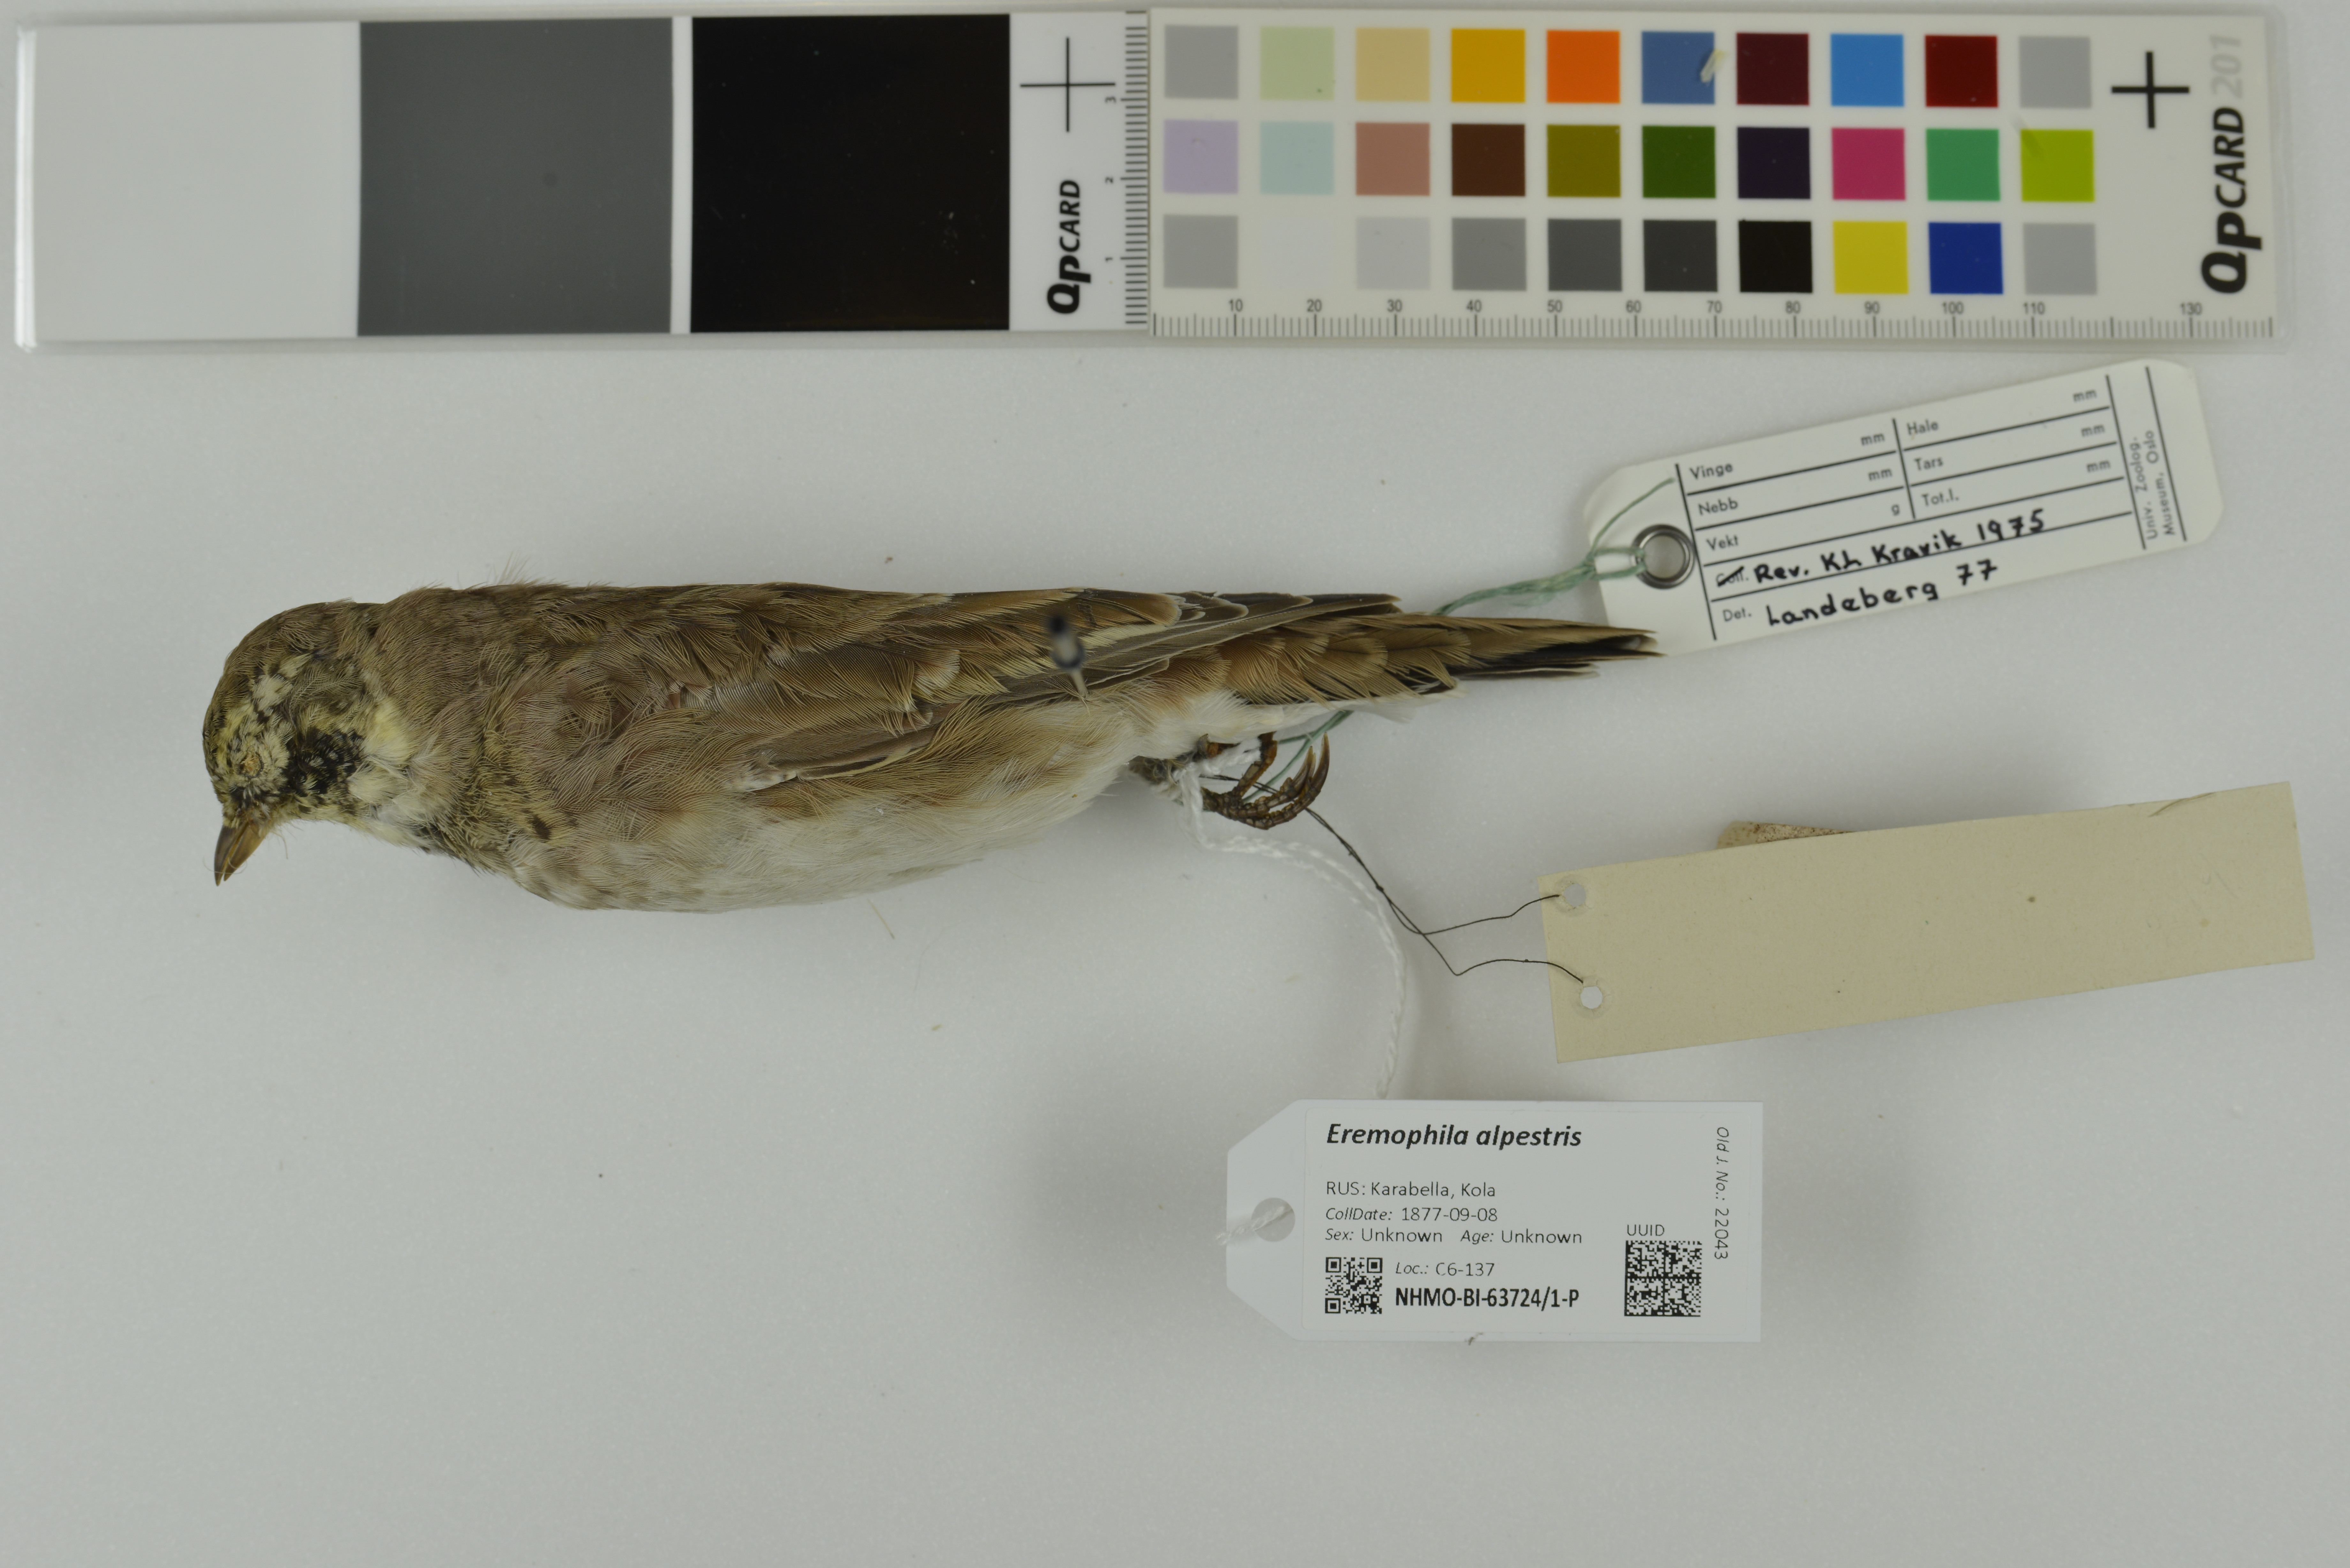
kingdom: Animalia
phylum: Chordata
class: Aves
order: Passeriformes
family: Alaudidae
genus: Eremophila
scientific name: Eremophila alpestris
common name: Horned lark
